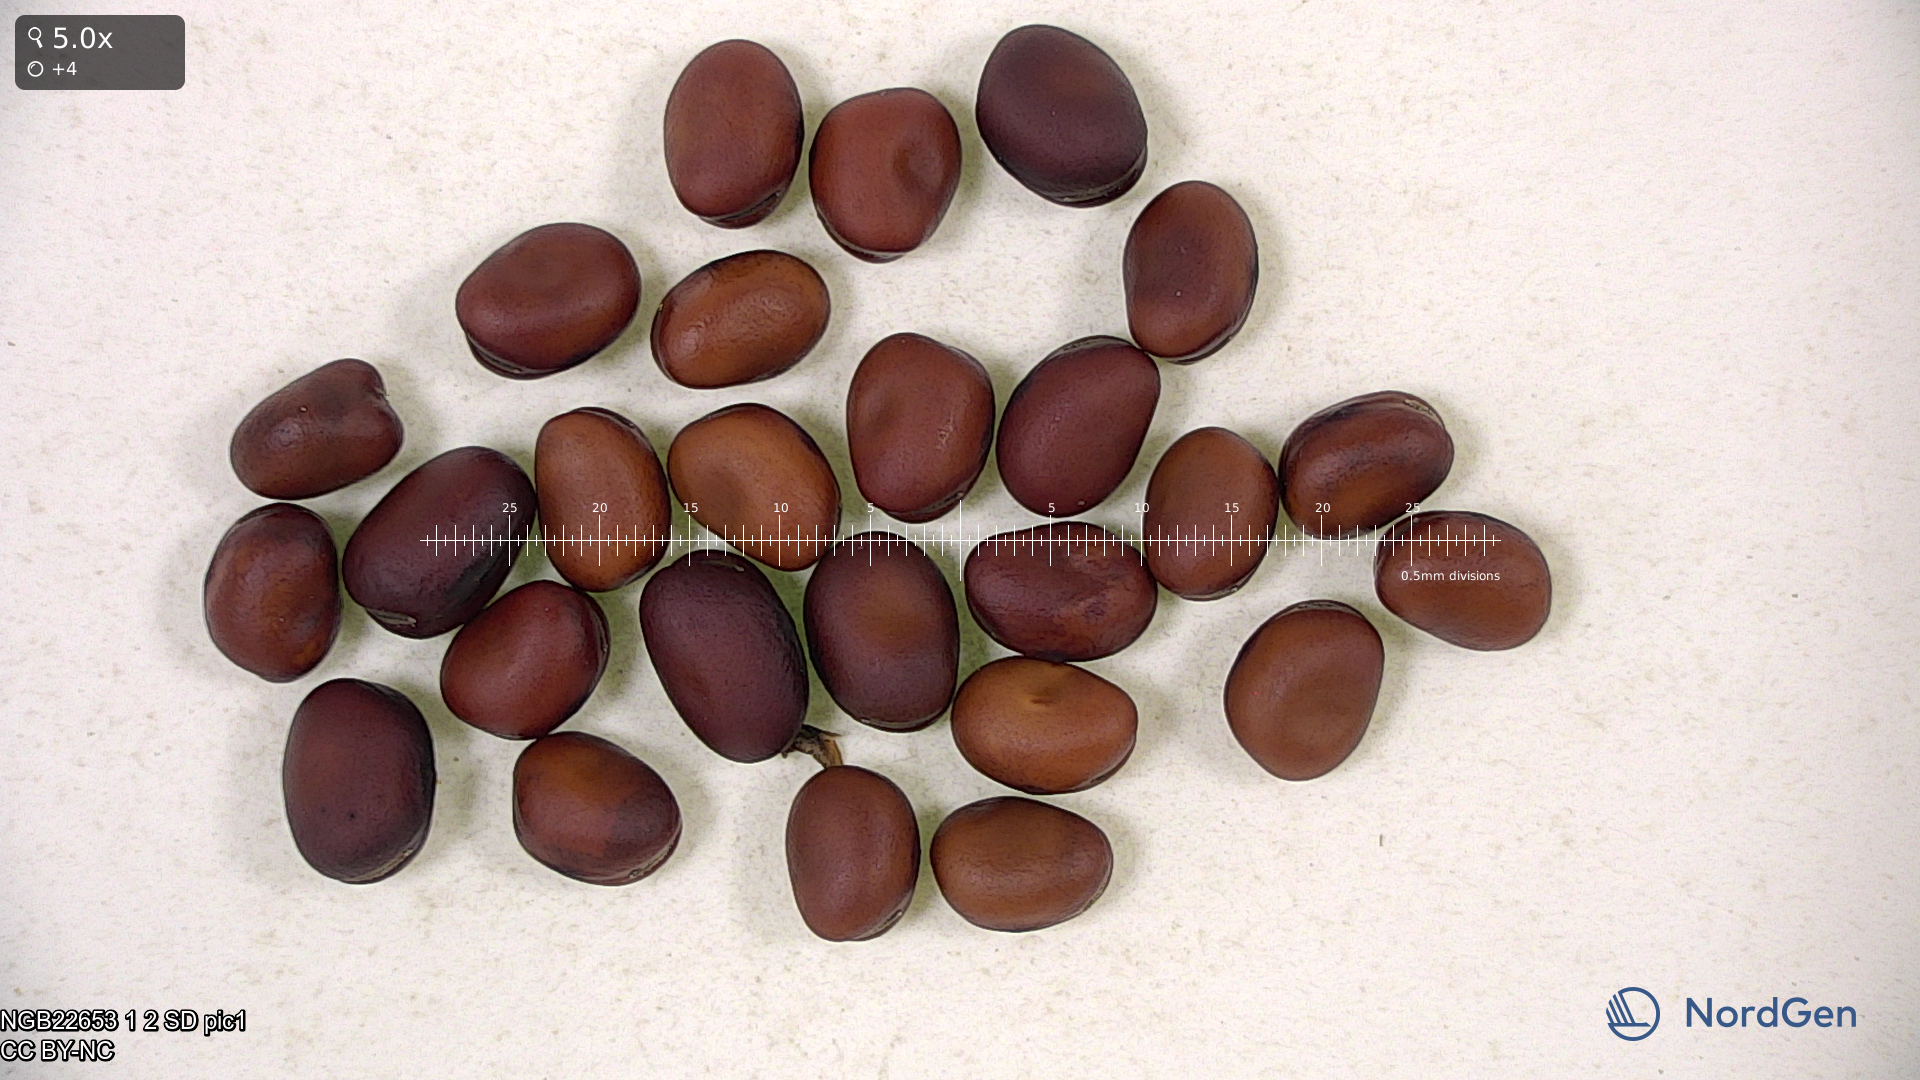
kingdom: Plantae
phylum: Tracheophyta
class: Magnoliopsida
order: Fabales
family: Fabaceae
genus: Vicia
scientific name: Vicia faba
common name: Broad bean
